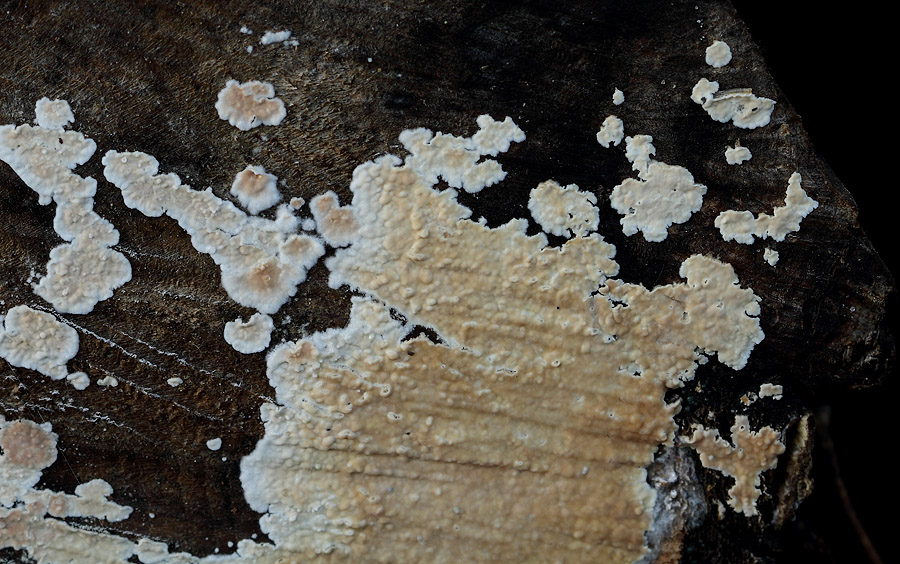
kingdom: Fungi
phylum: Basidiomycota
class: Agaricomycetes
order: Agaricales
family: Physalacriaceae
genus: Cylindrobasidium
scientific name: Cylindrobasidium evolvens
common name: sprækkehinde
